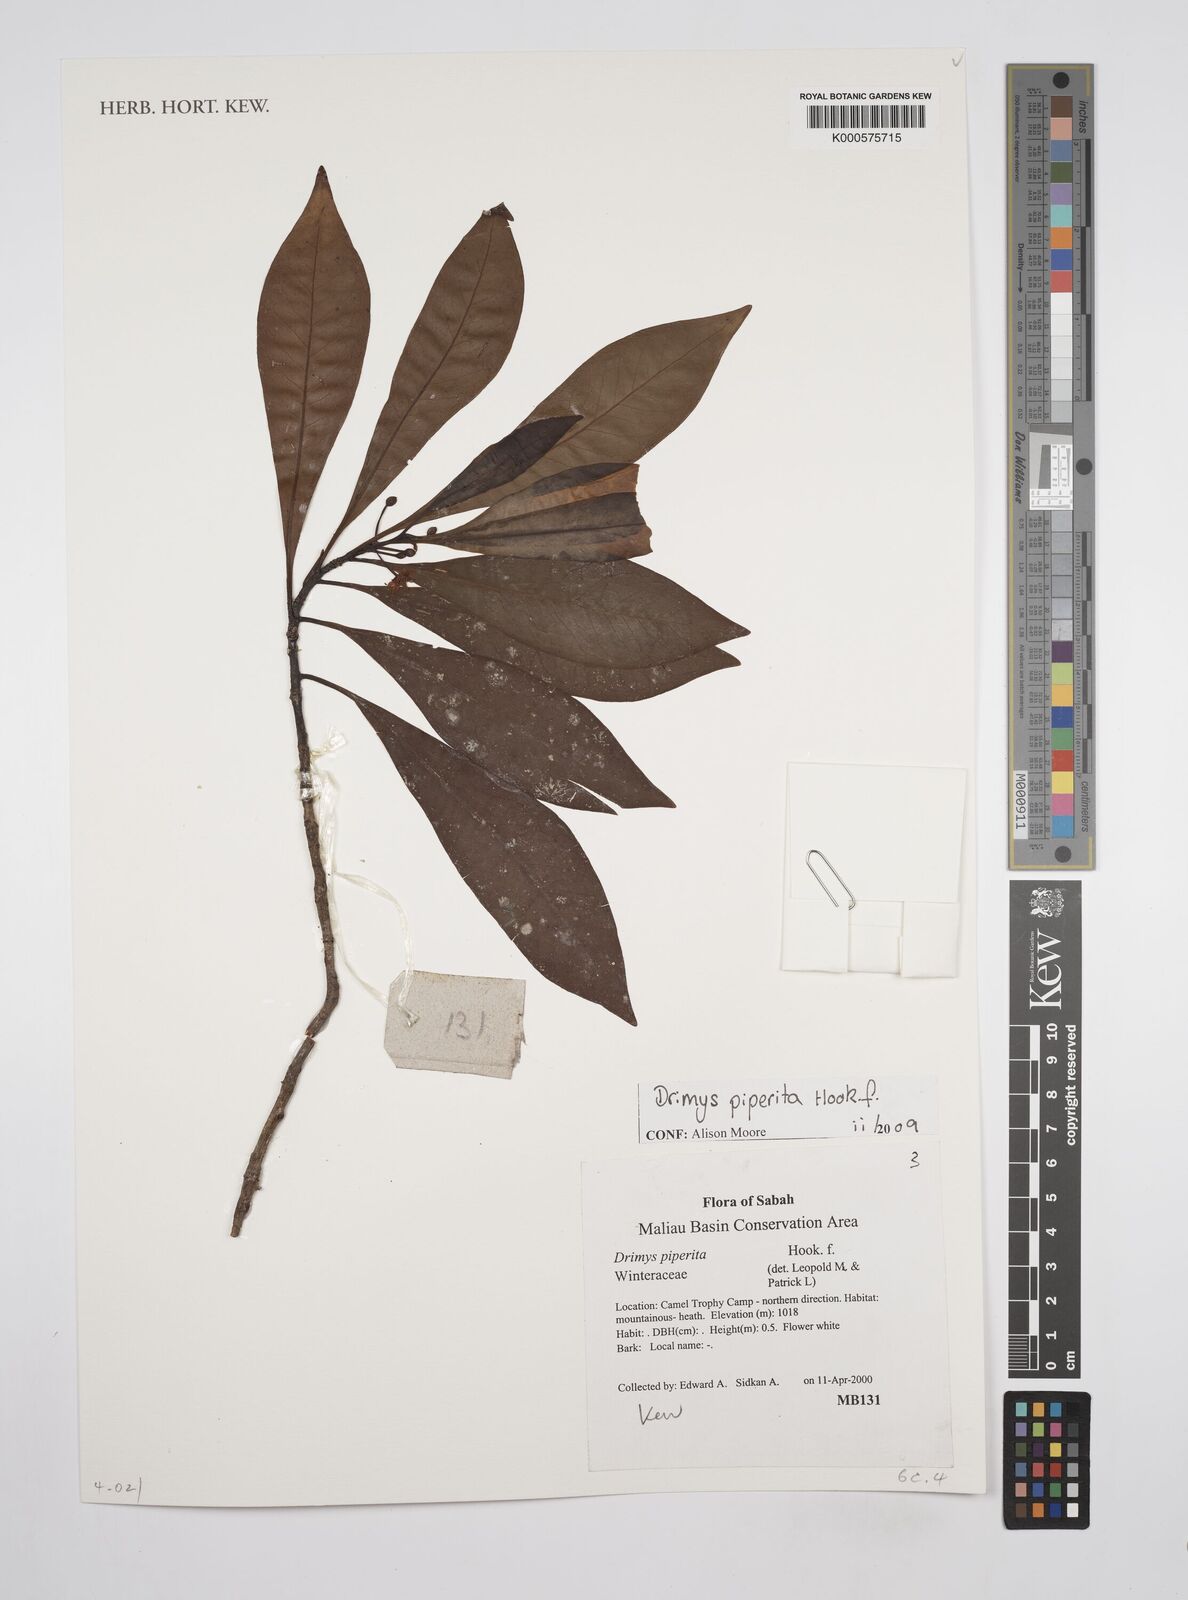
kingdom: Plantae
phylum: Tracheophyta
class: Magnoliopsida
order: Canellales
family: Winteraceae
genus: Drimys
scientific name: Drimys piperita
